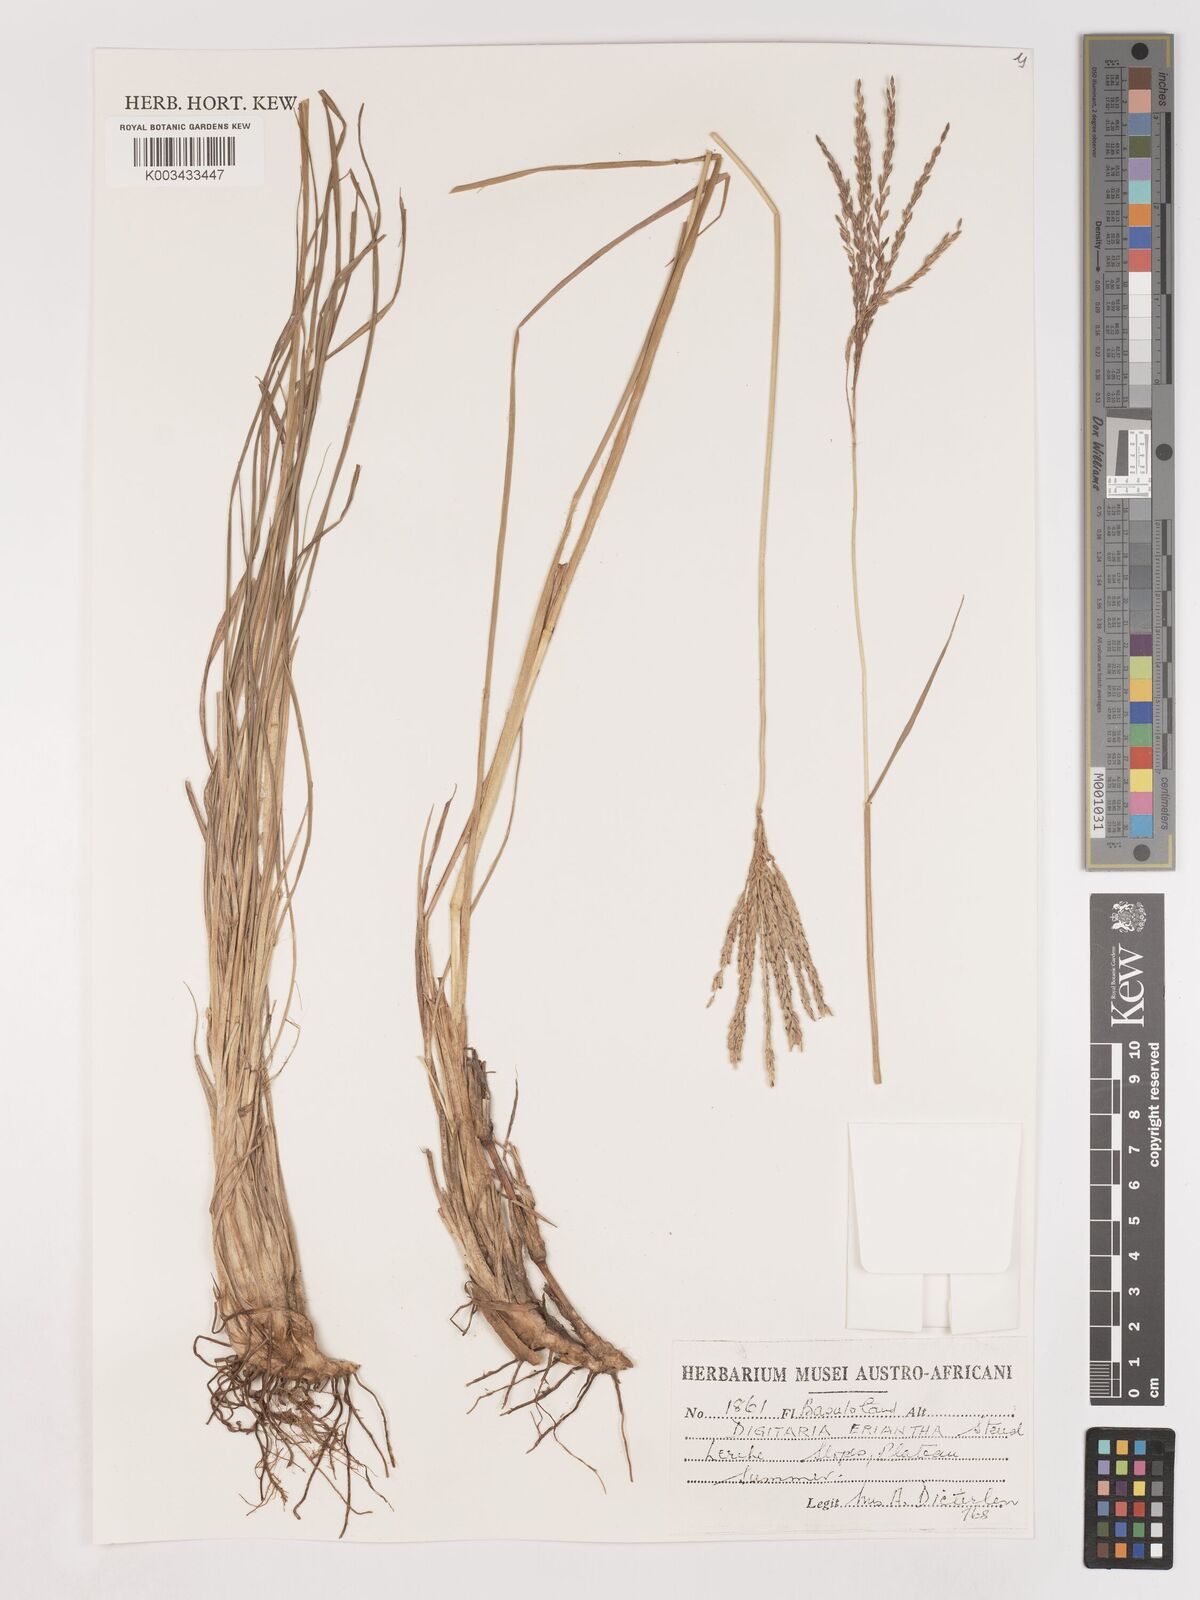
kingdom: Plantae
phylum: Tracheophyta
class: Liliopsida
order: Poales
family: Poaceae
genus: Digitaria
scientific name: Digitaria eriantha
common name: Digitgrass
